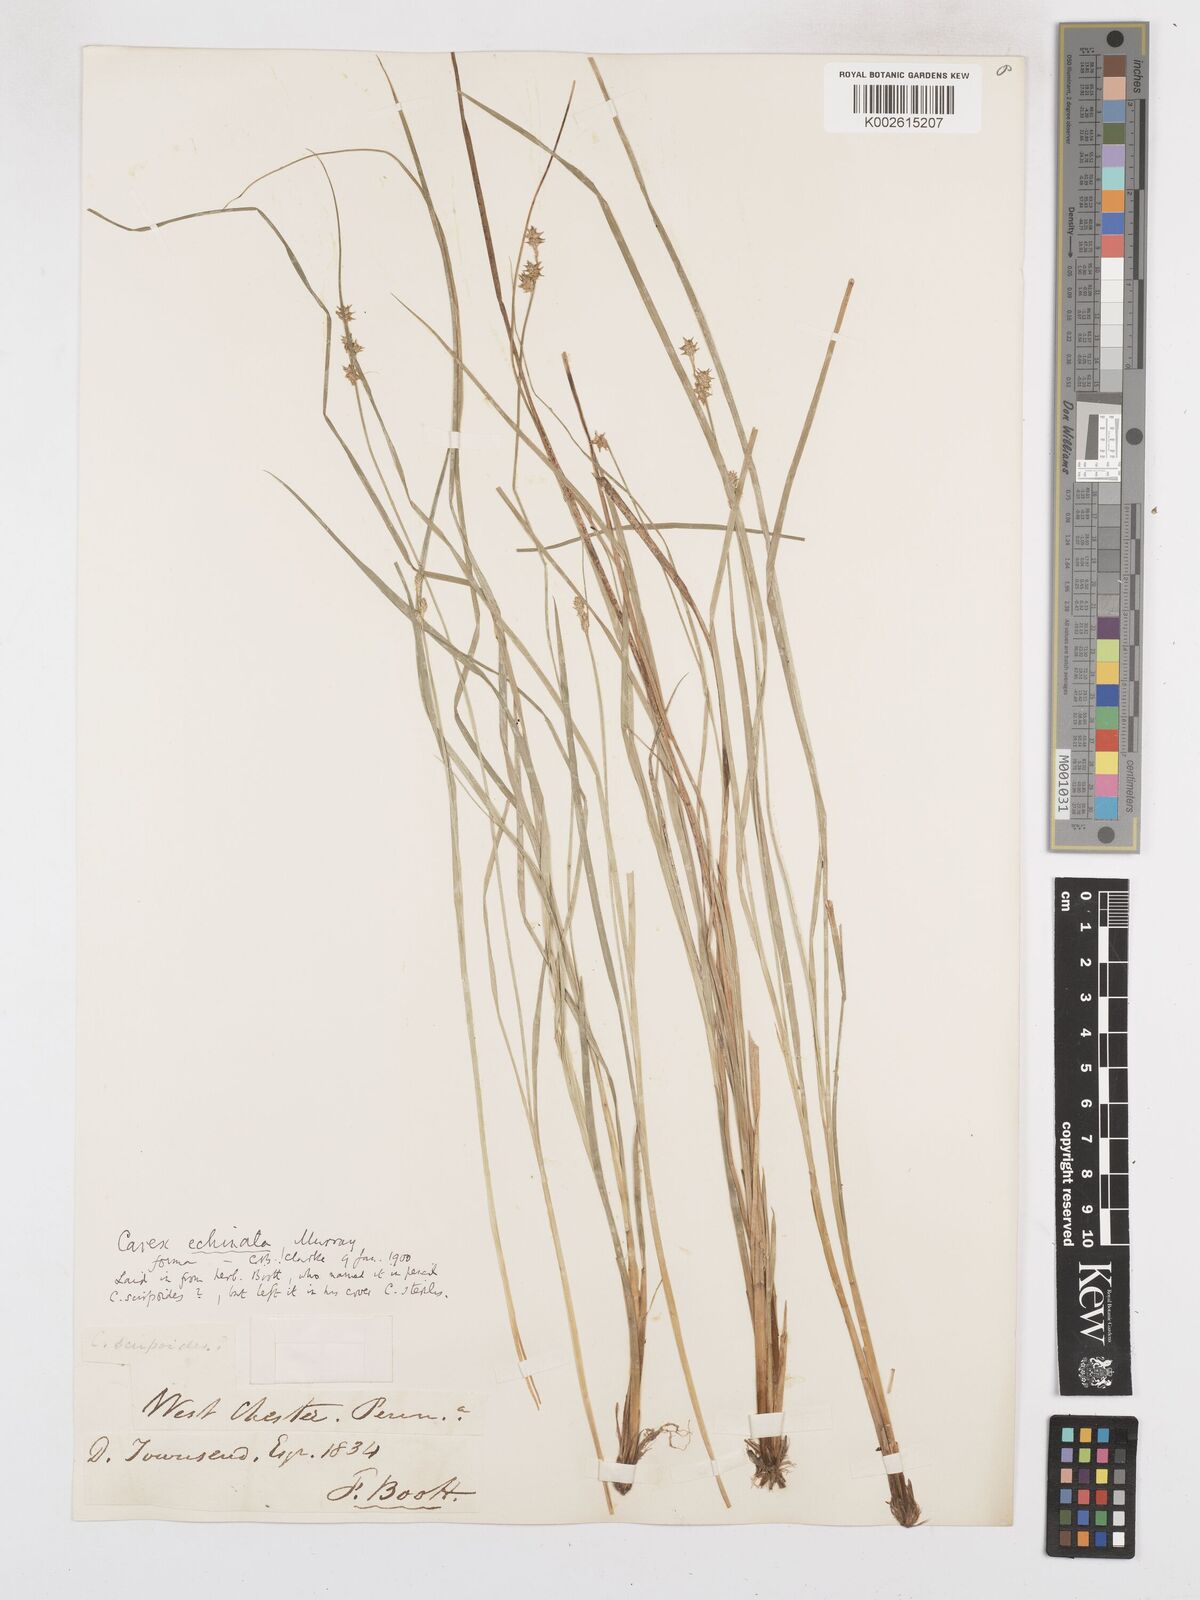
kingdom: Plantae
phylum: Tracheophyta
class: Liliopsida
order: Poales
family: Cyperaceae
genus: Carex
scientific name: Carex echinata
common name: Star sedge
